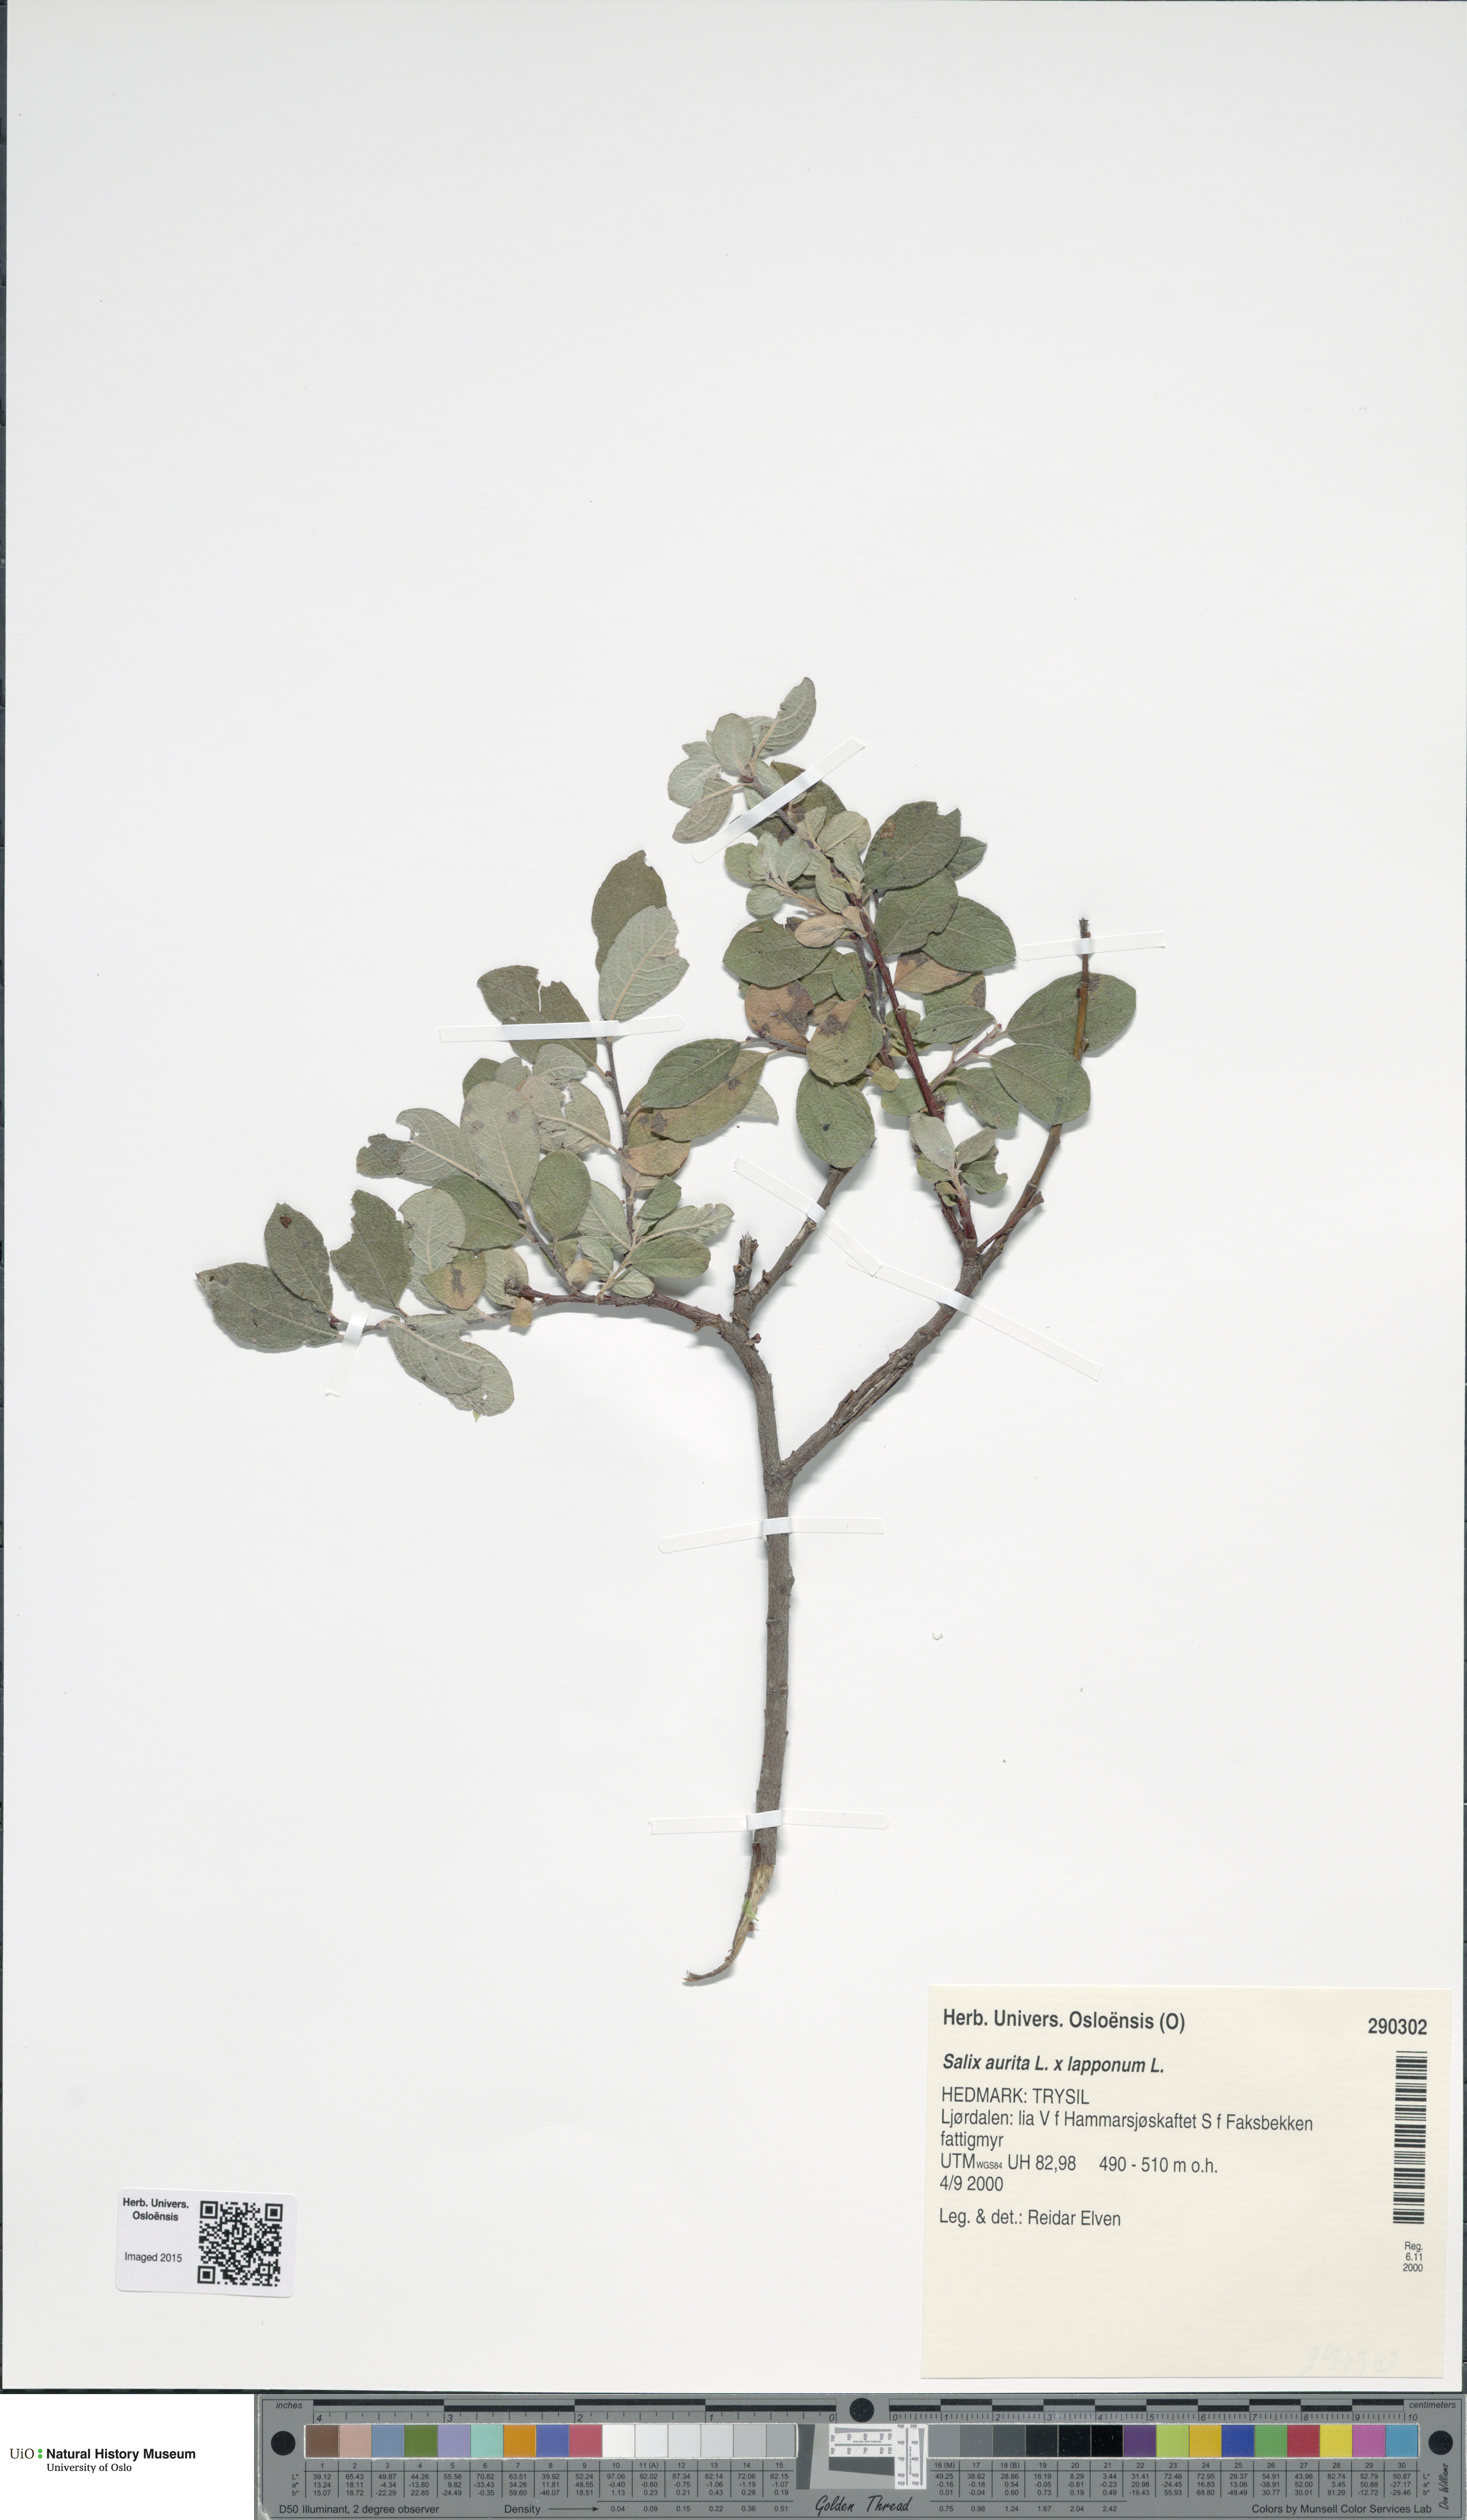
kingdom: Plantae
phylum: Tracheophyta
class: Magnoliopsida
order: Malpighiales
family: Salicaceae
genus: Salix
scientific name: Salix
